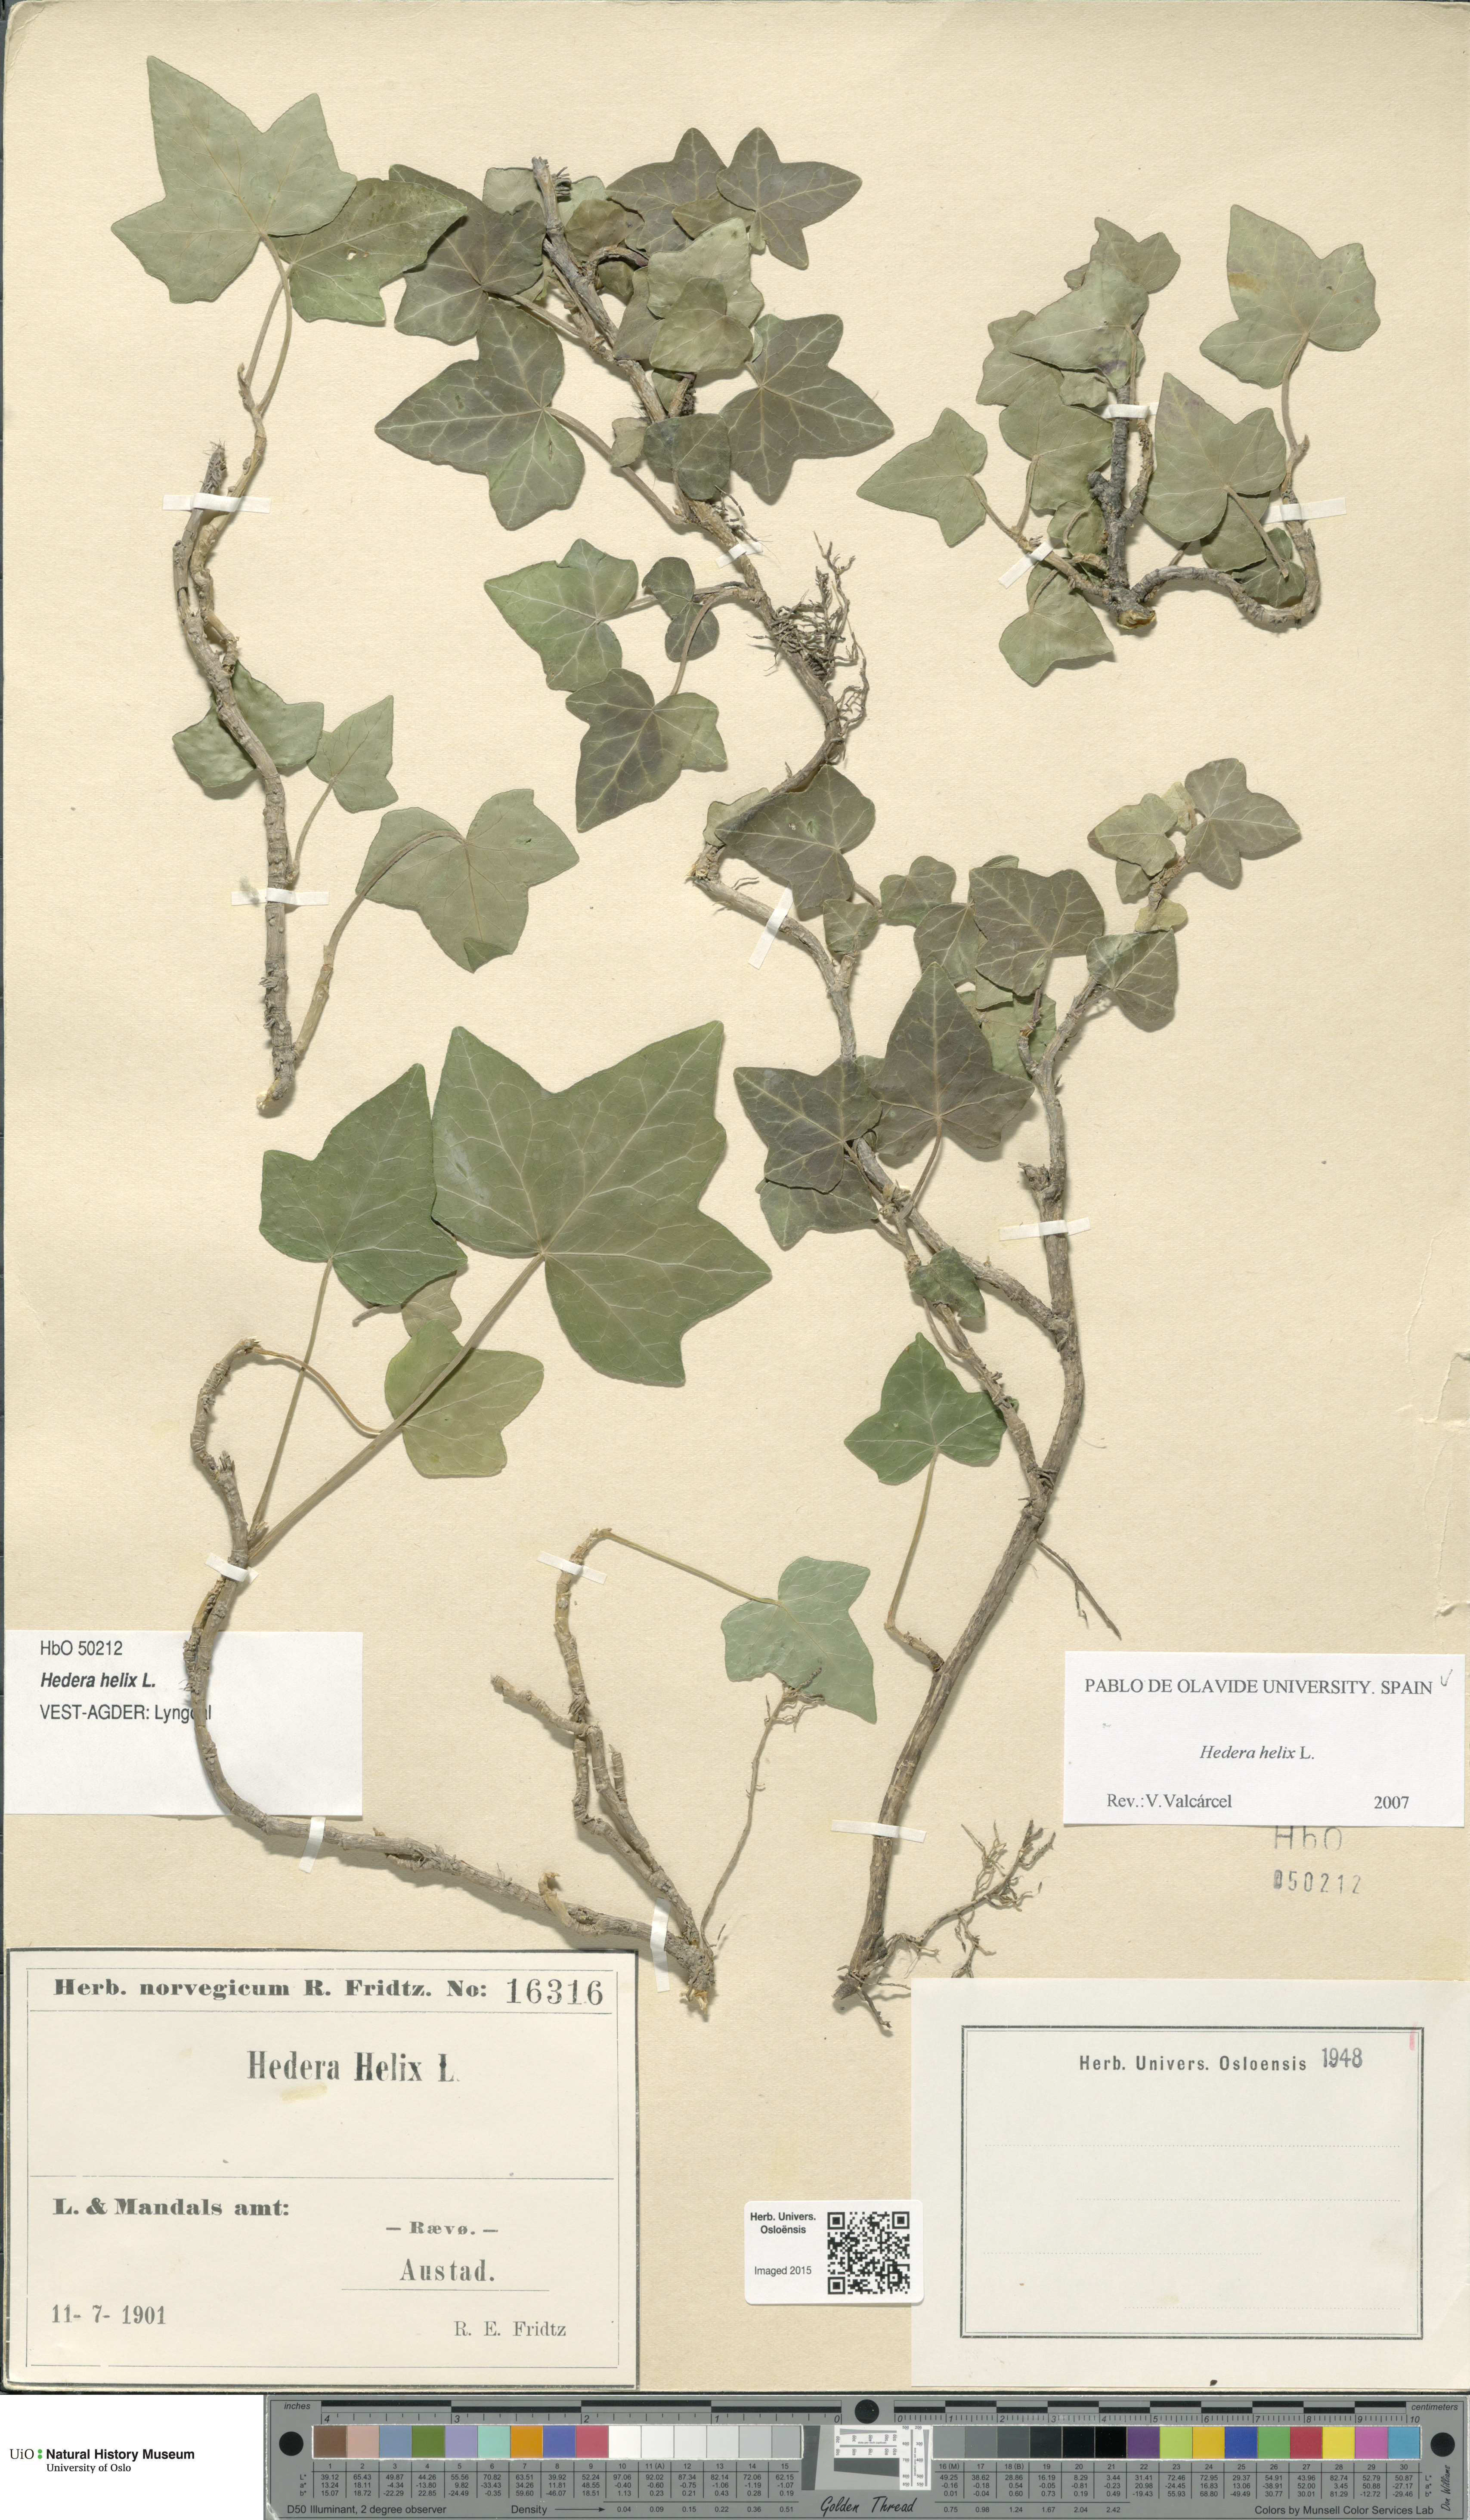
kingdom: Plantae
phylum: Tracheophyta
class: Magnoliopsida
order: Apiales
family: Araliaceae
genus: Hedera
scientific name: Hedera helix
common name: Ivy
